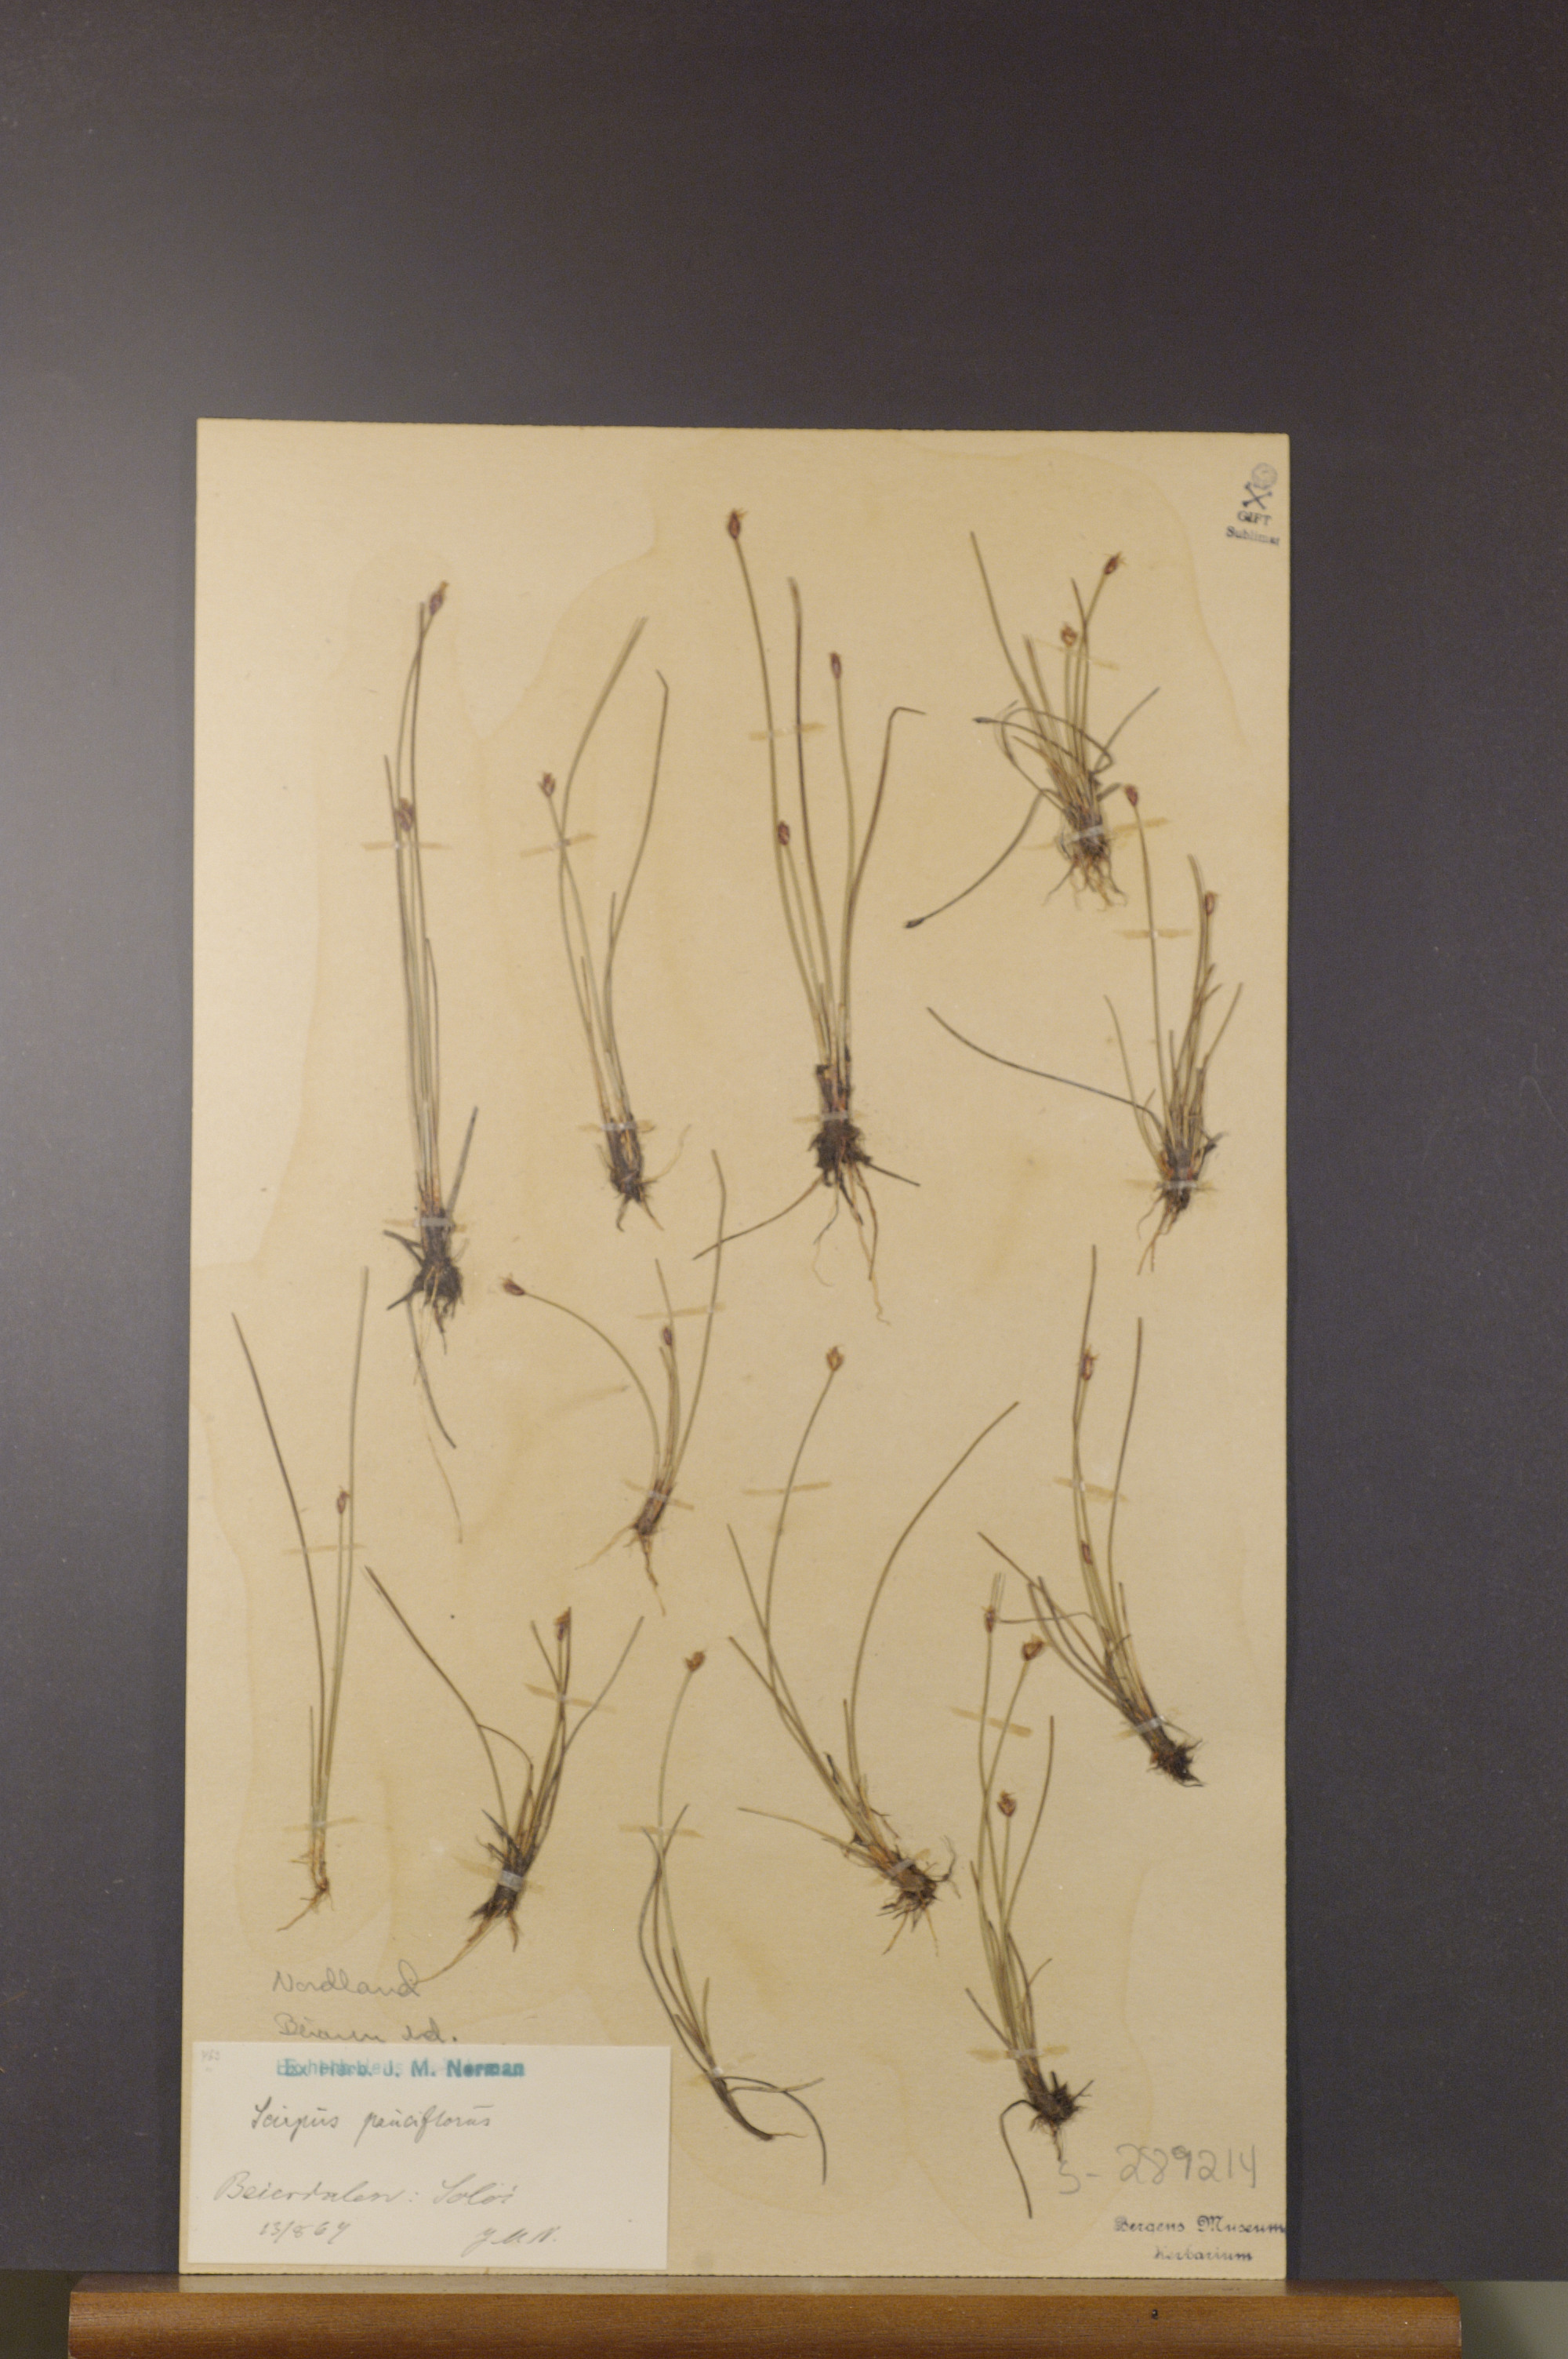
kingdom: Plantae
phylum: Tracheophyta
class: Liliopsida
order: Poales
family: Cyperaceae
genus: Eleocharis
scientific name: Eleocharis quinqueflora
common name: Few-flowered spike-rush
